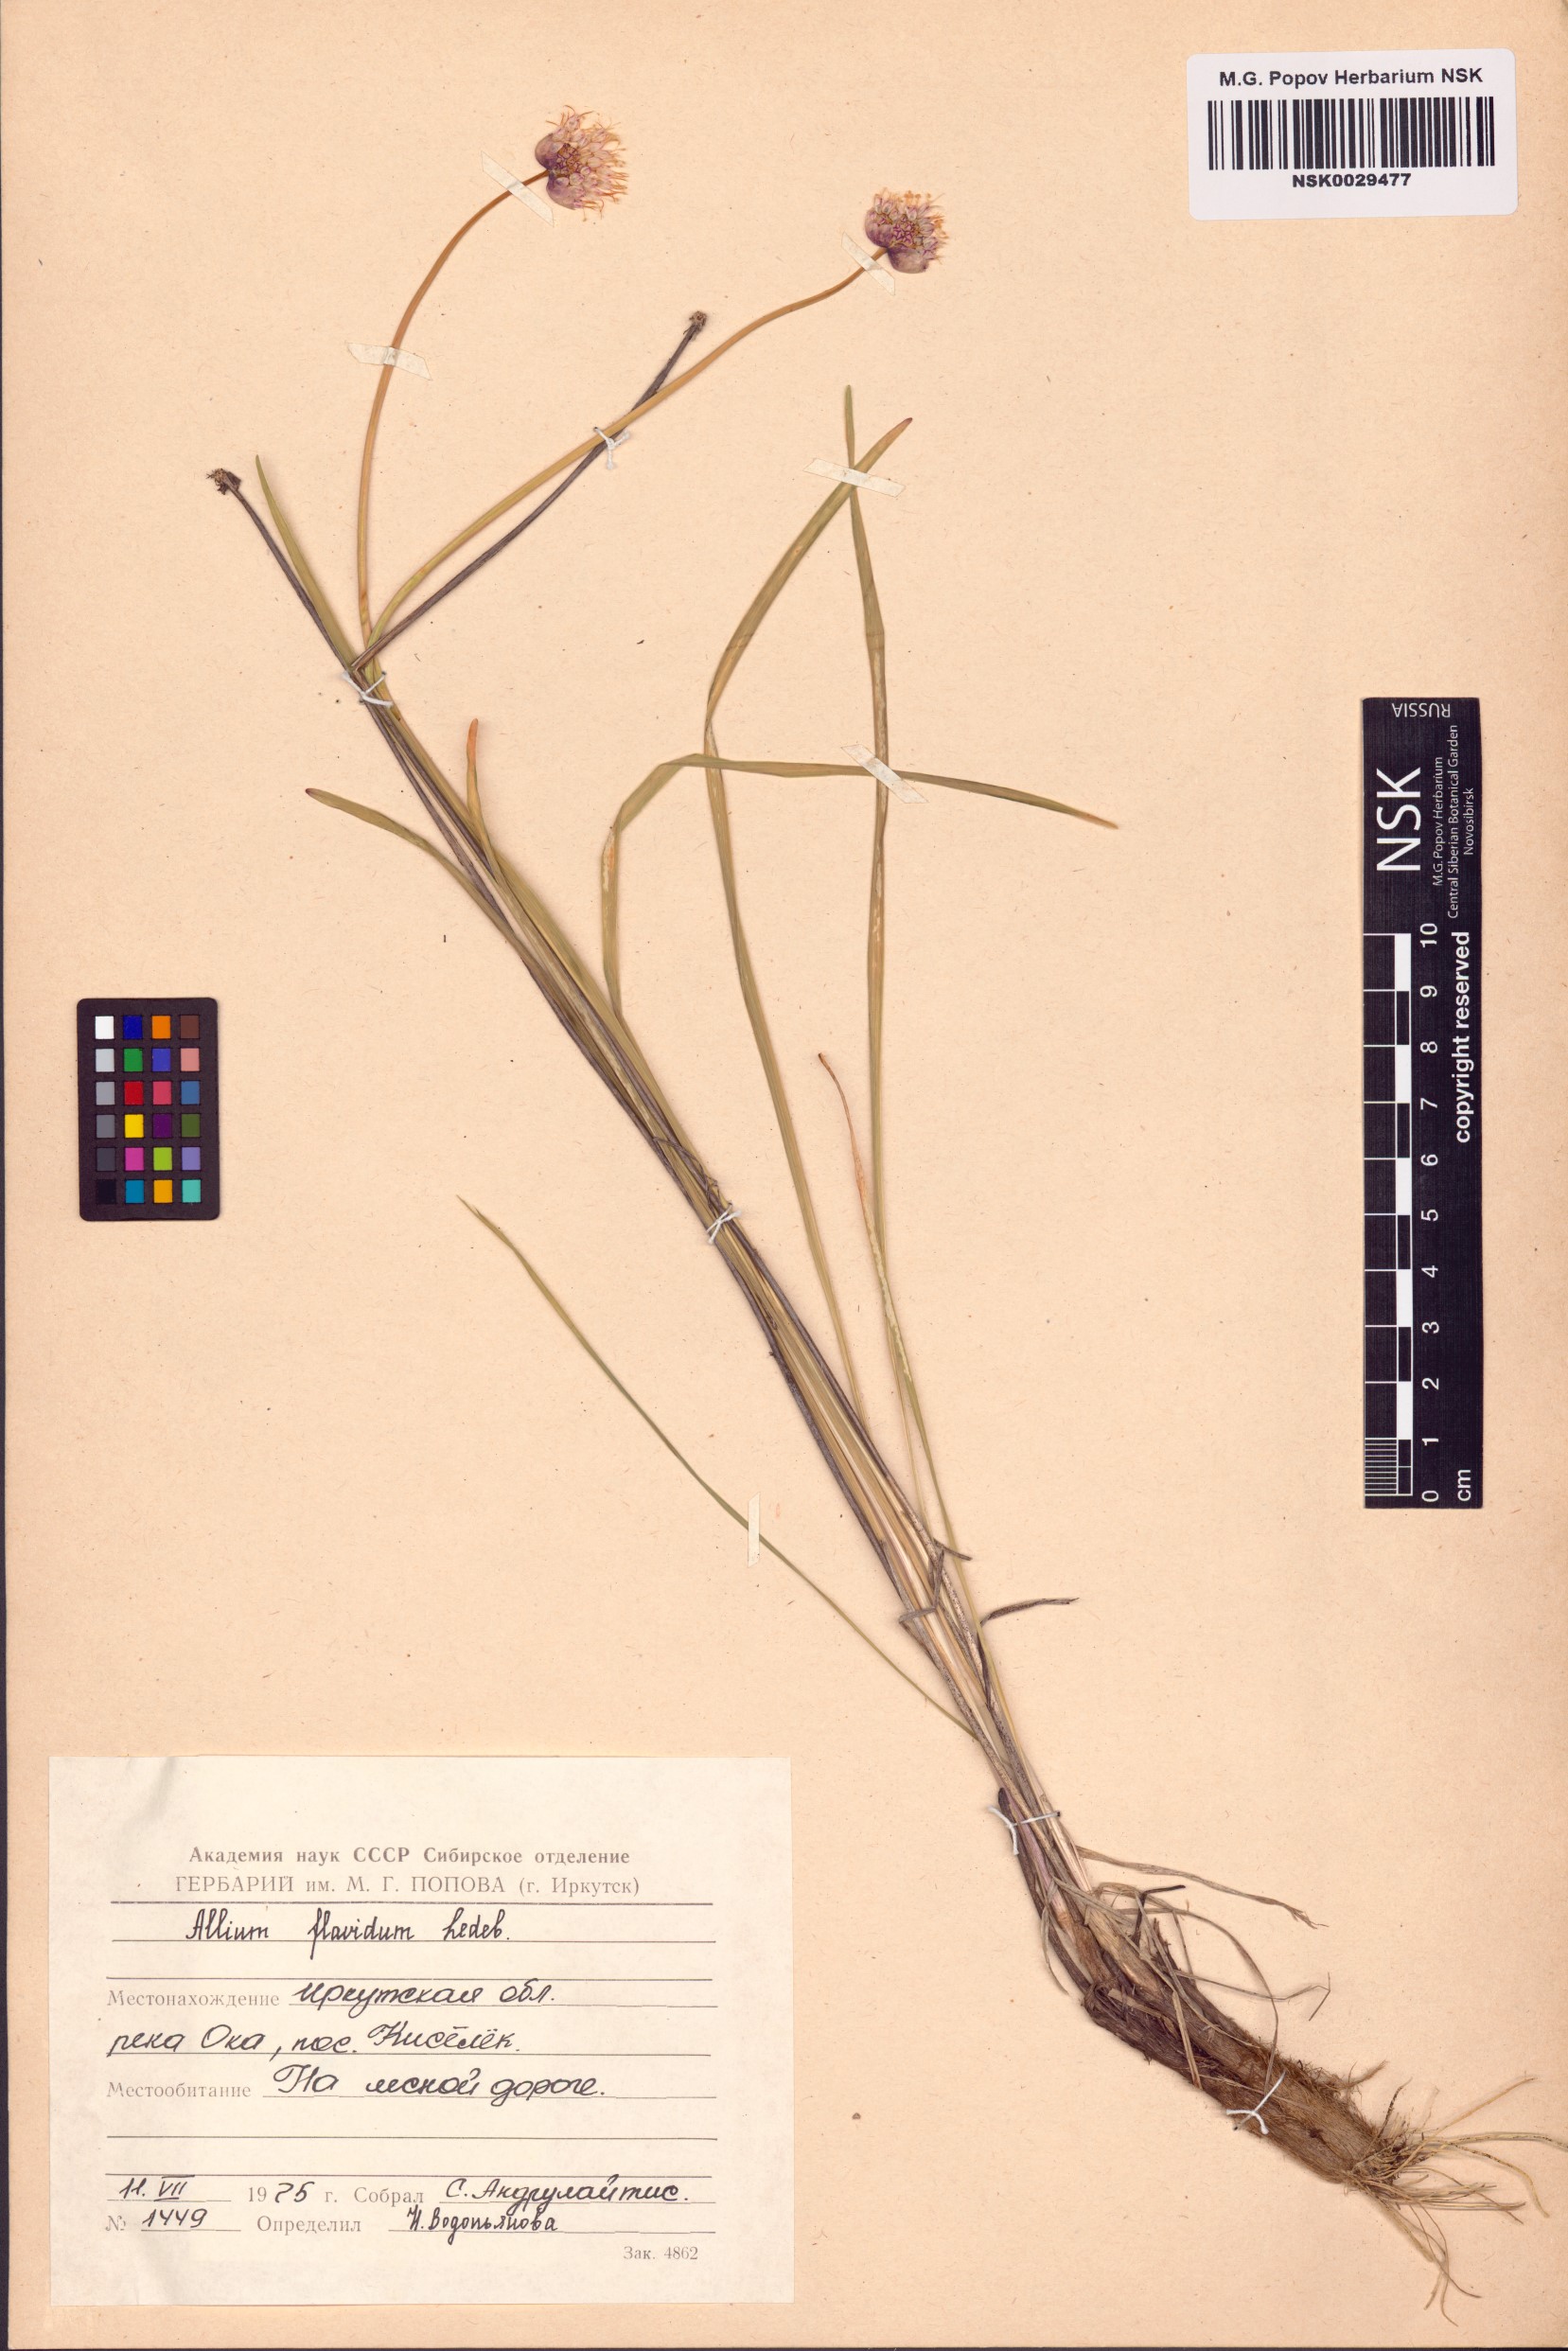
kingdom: Plantae
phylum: Tracheophyta
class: Liliopsida
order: Asparagales
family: Amaryllidaceae
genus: Allium
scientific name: Allium flavidum
